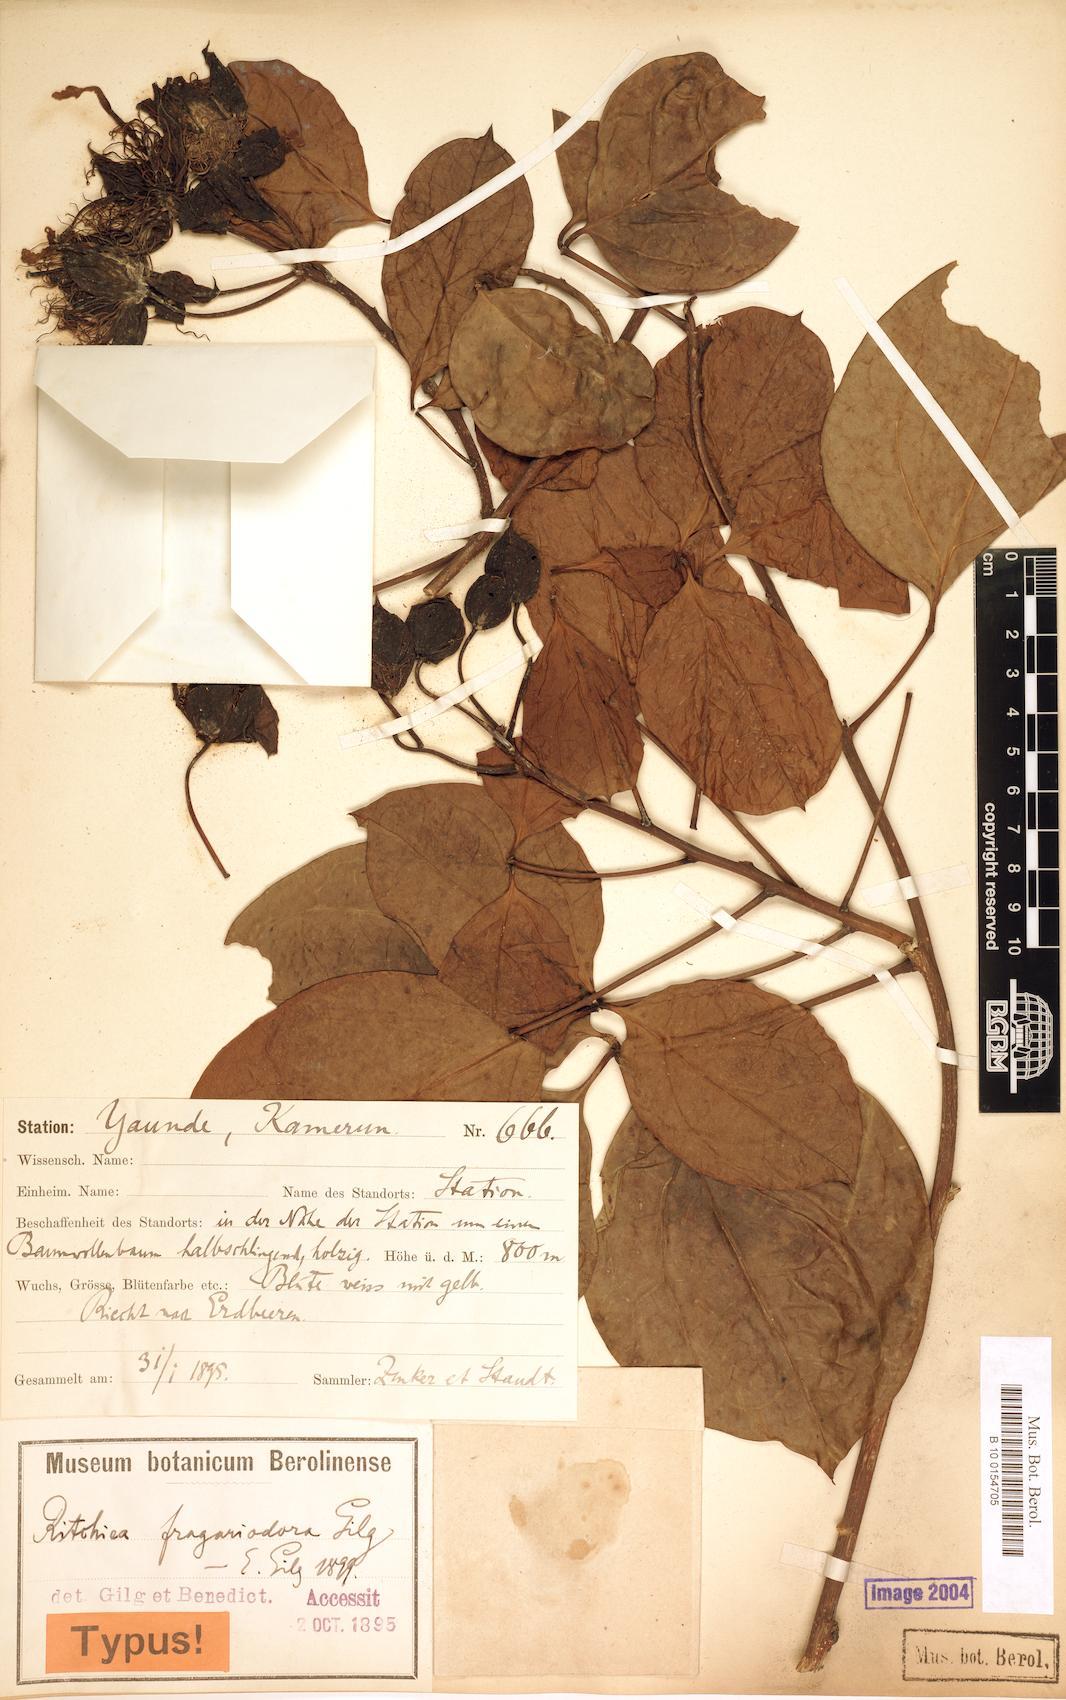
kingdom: Plantae
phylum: Tracheophyta
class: Magnoliopsida
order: Brassicales
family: Capparaceae
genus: Ritchiea
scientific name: Ritchiea capparoides
